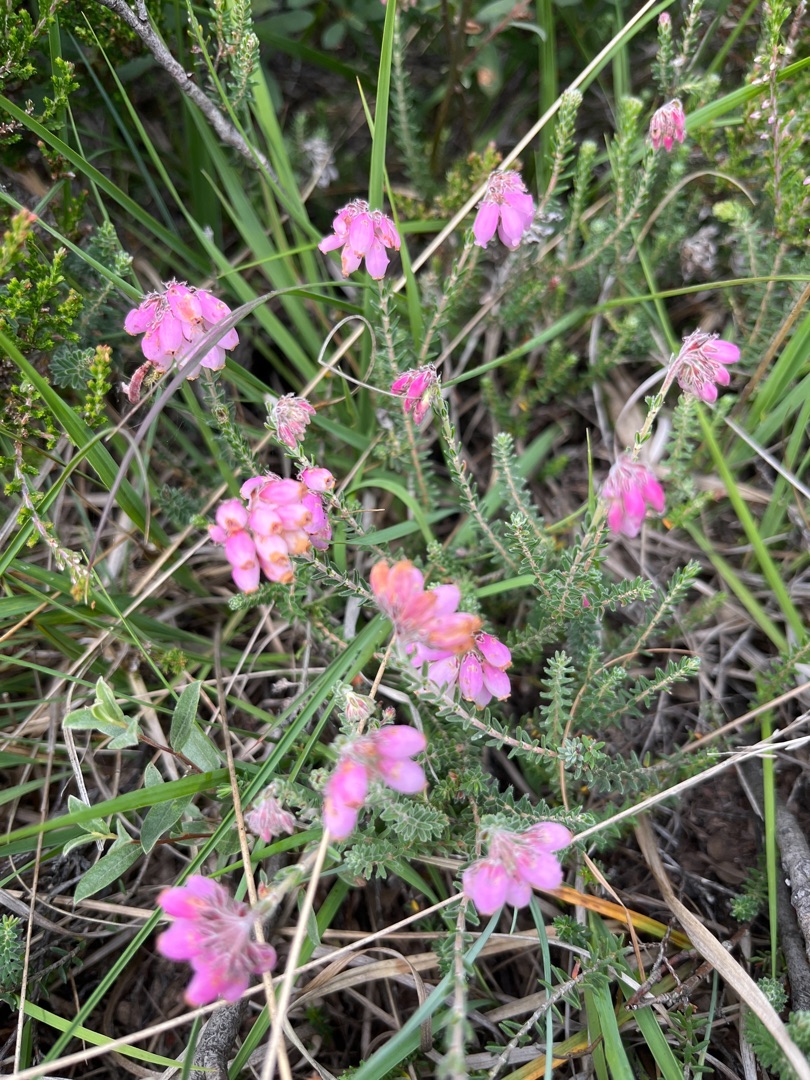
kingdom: Plantae
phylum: Tracheophyta
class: Magnoliopsida
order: Ericales
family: Ericaceae
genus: Erica
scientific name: Erica tetralix
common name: Klokkelyng
